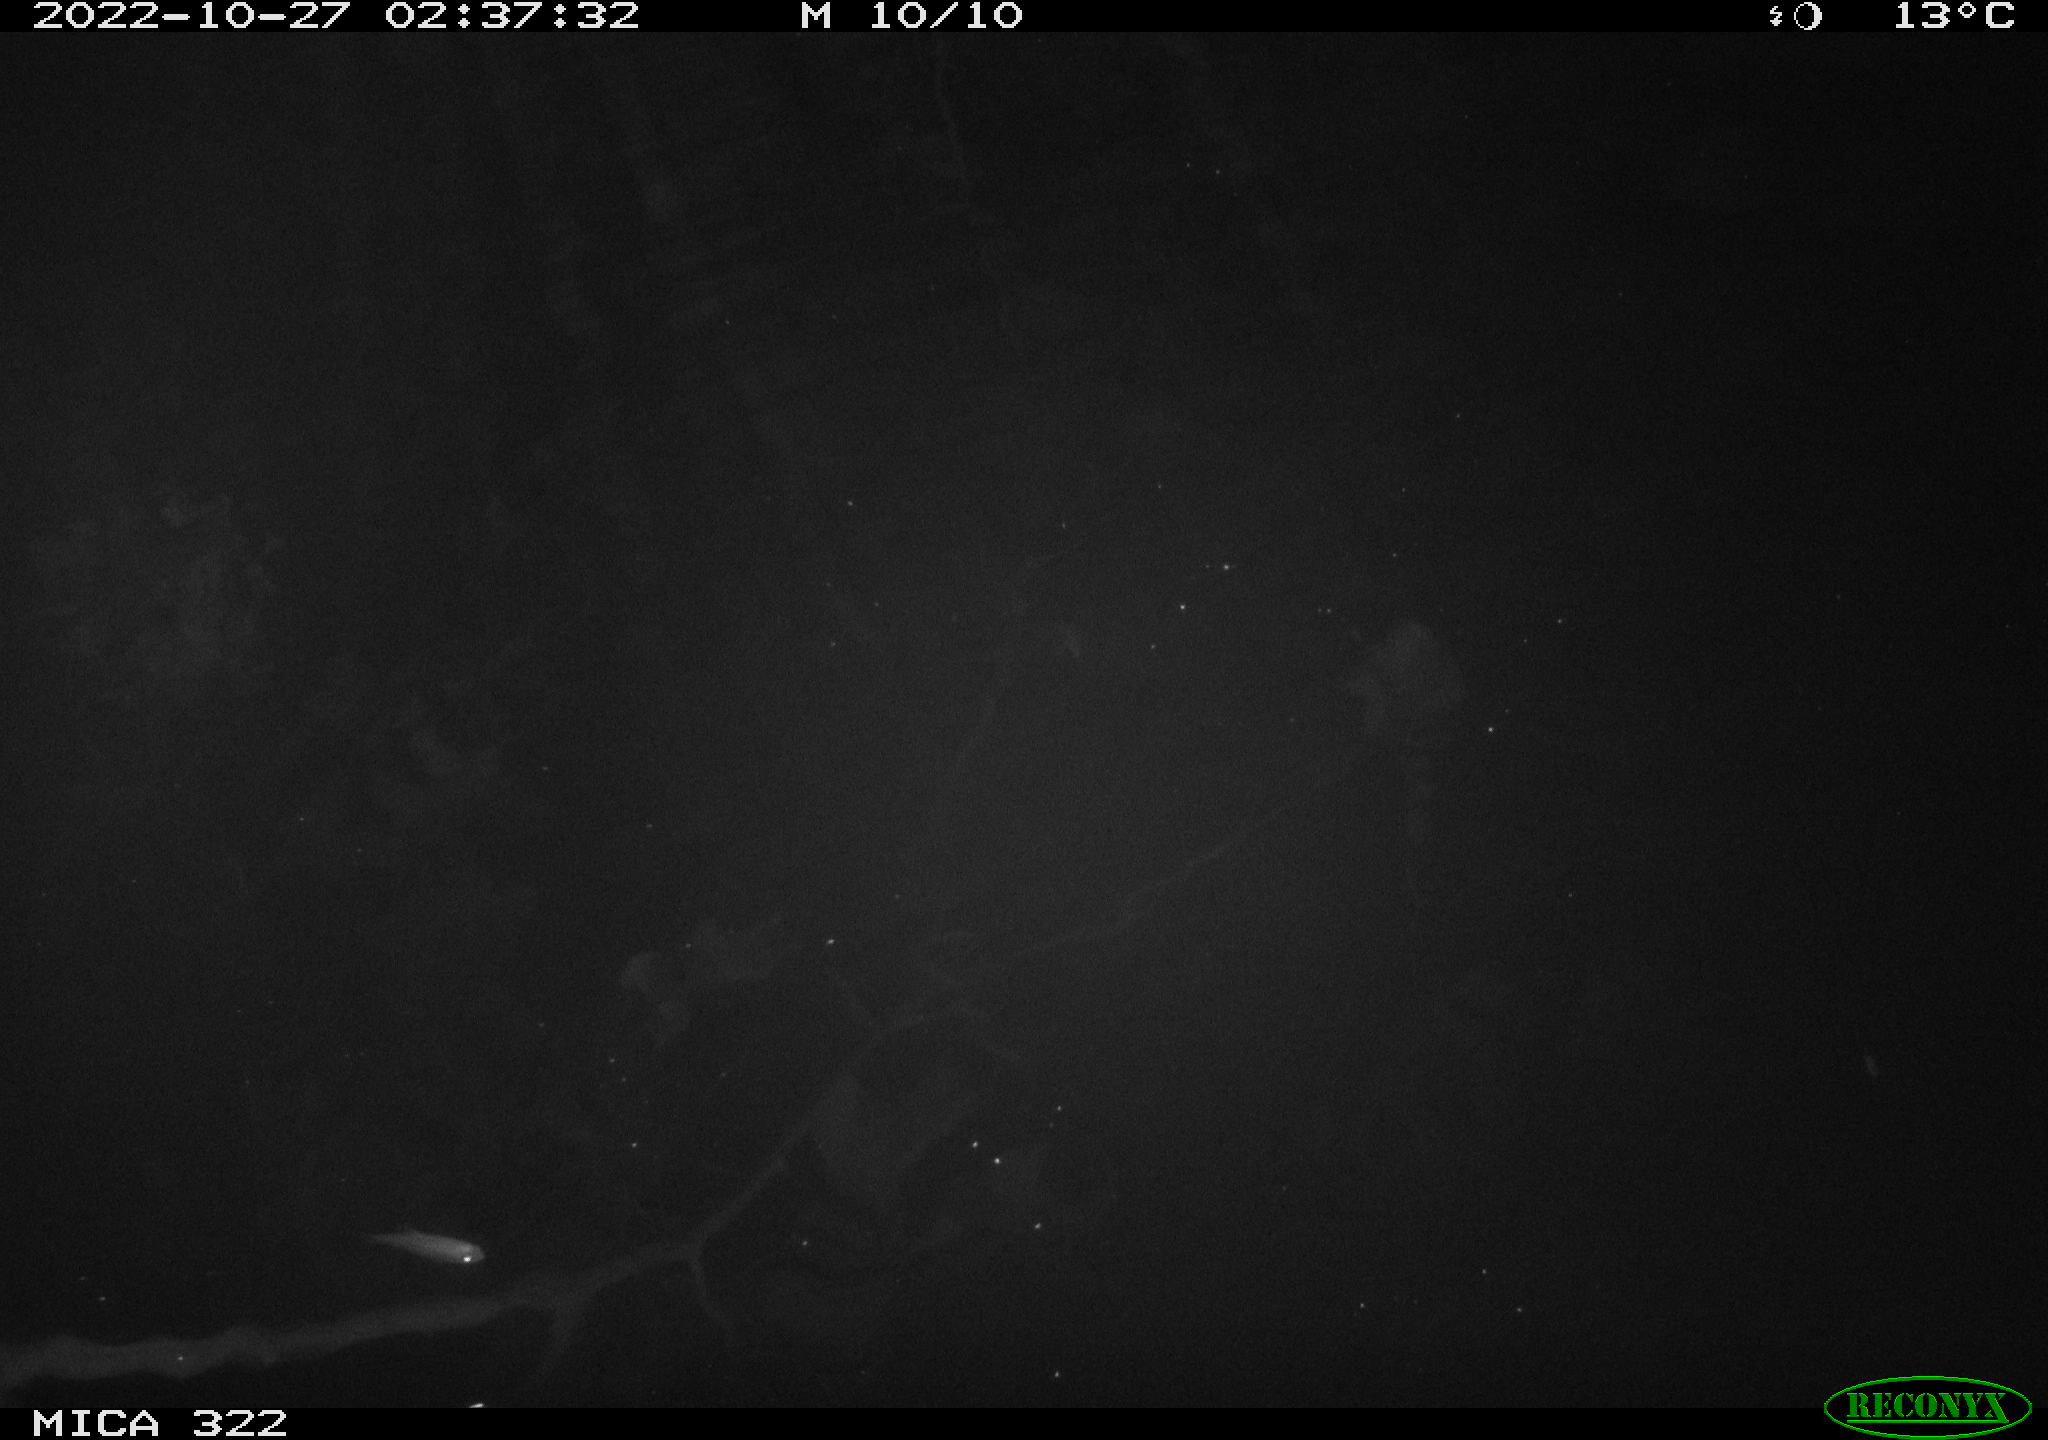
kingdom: Animalia
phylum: Chordata
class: Mammalia
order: Rodentia
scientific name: Rodentia
